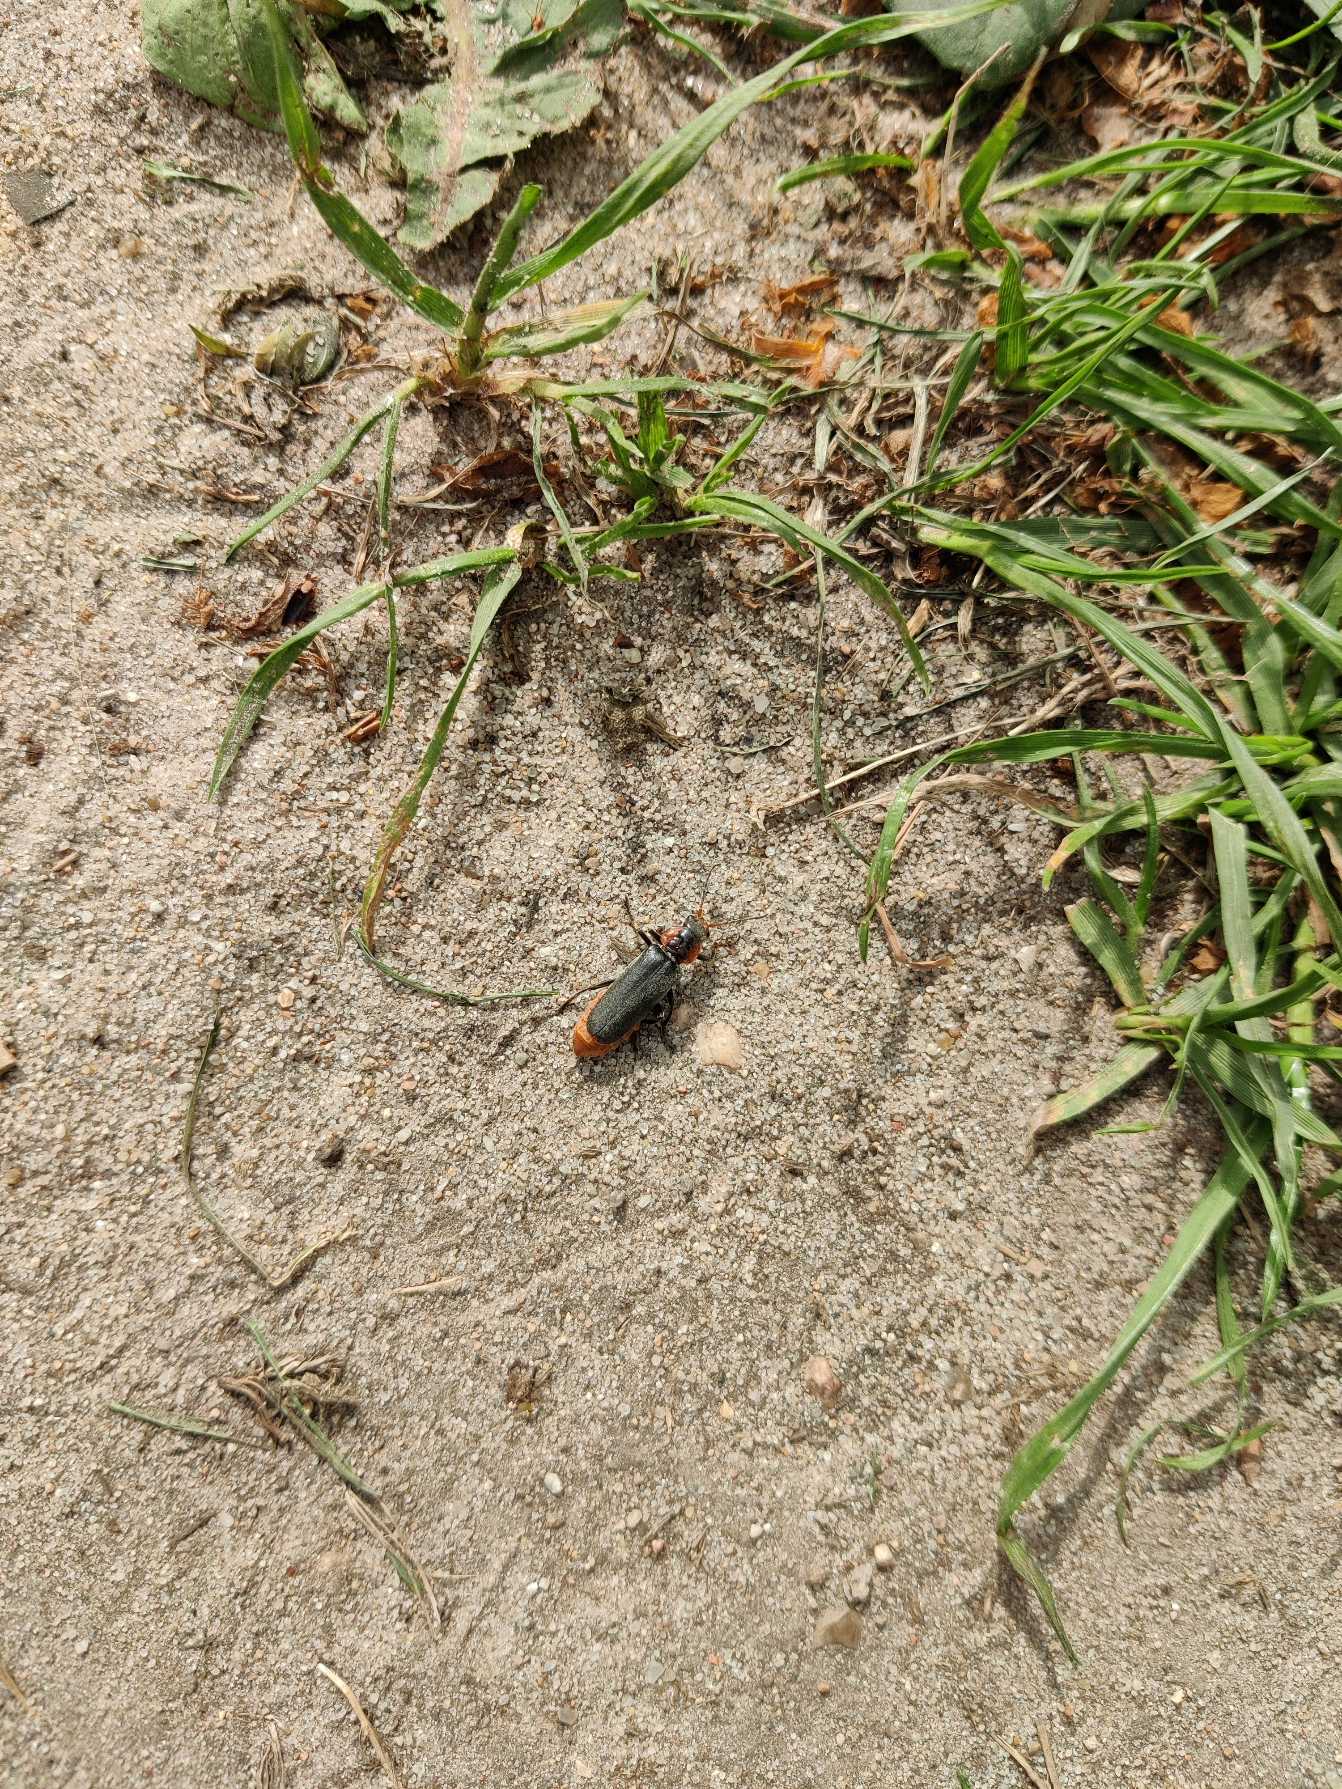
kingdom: Animalia
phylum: Arthropoda
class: Insecta
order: Coleoptera
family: Cantharidae
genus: Cantharis
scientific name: Cantharis fusca
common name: Stor blødvinge
